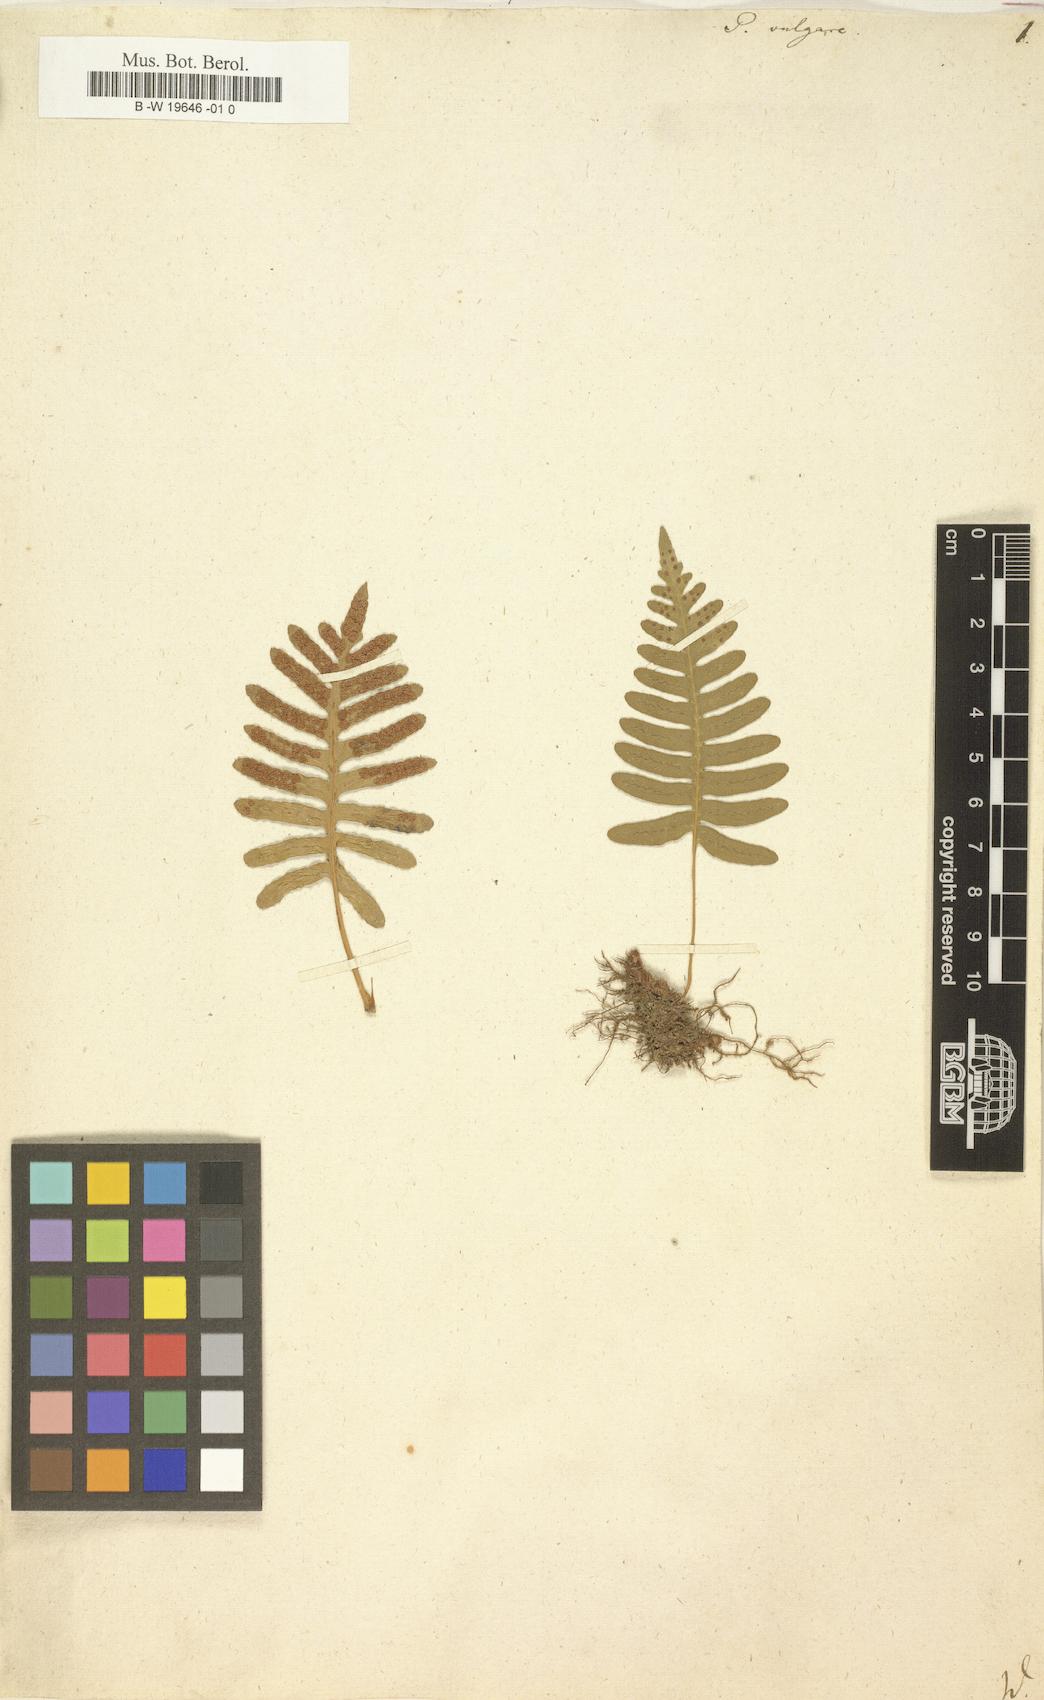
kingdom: Plantae
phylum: Tracheophyta
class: Polypodiopsida
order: Polypodiales
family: Polypodiaceae
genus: Polypodium
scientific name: Polypodium vulgare
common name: Common polypody
